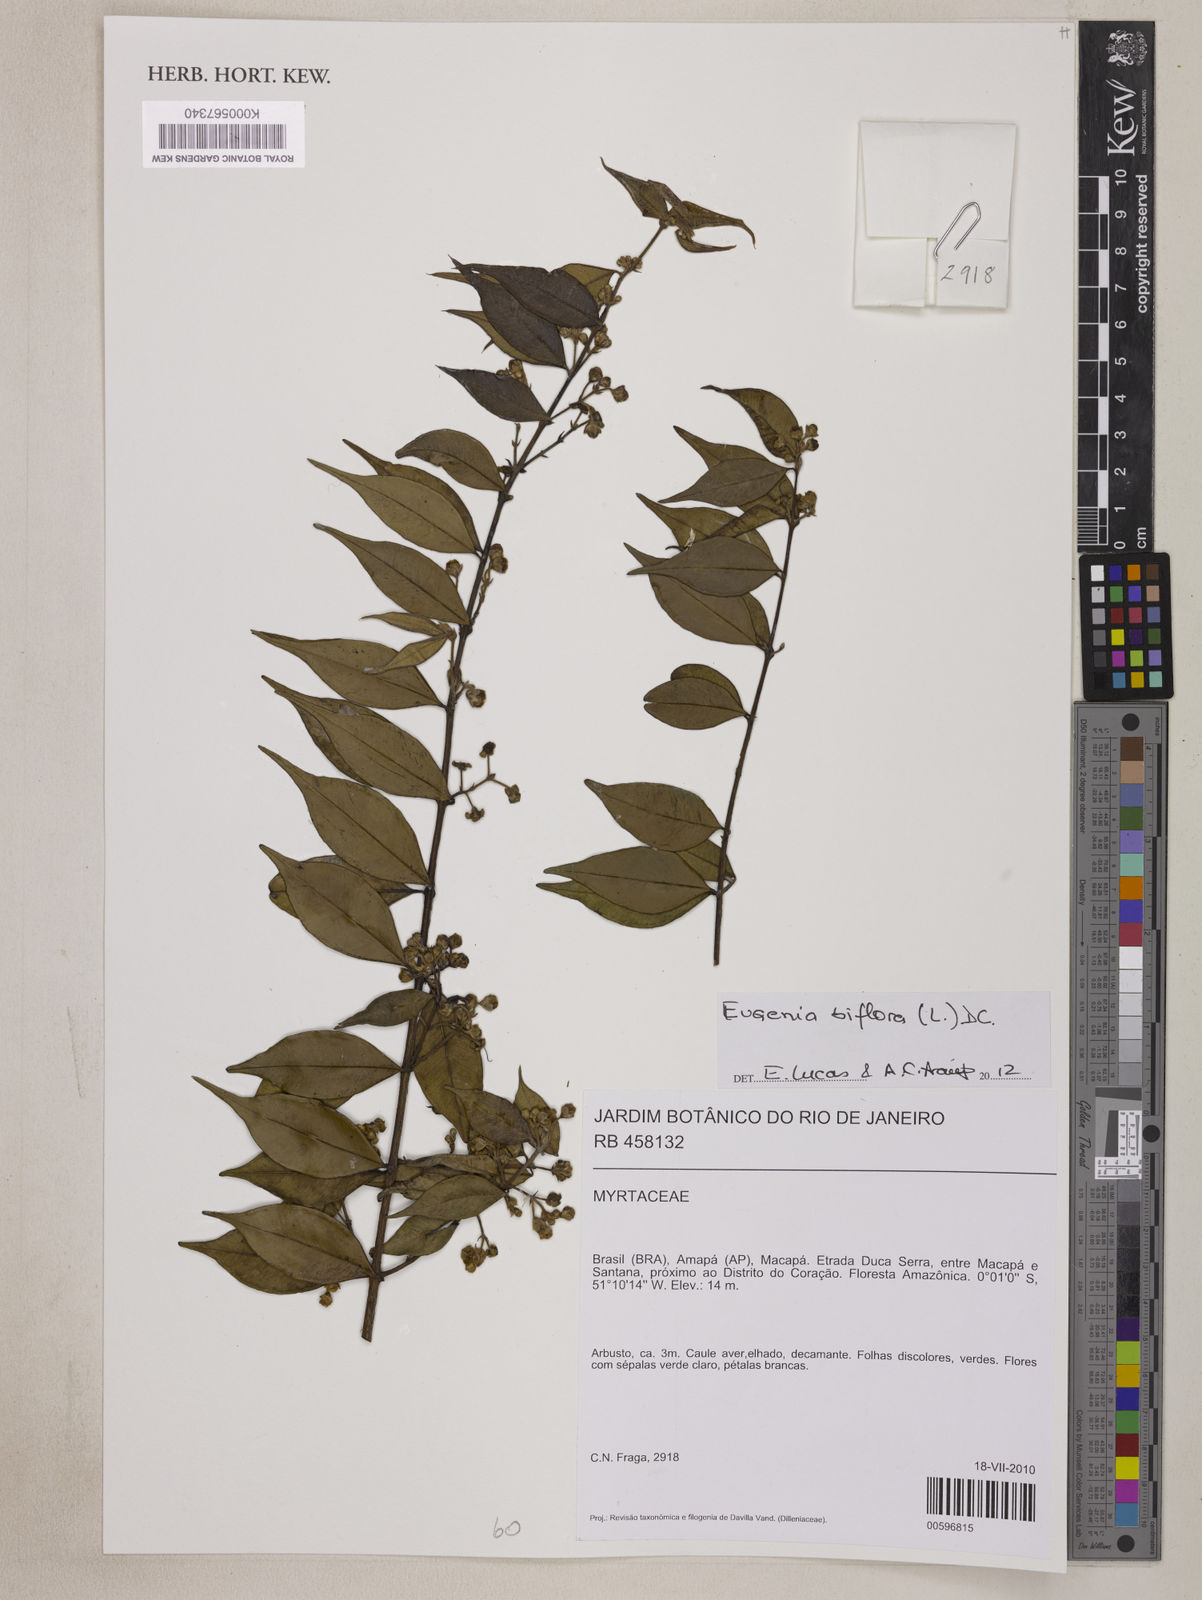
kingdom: Plantae
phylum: Tracheophyta
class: Magnoliopsida
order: Myrtales
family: Myrtaceae
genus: Eugenia
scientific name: Eugenia biflora
